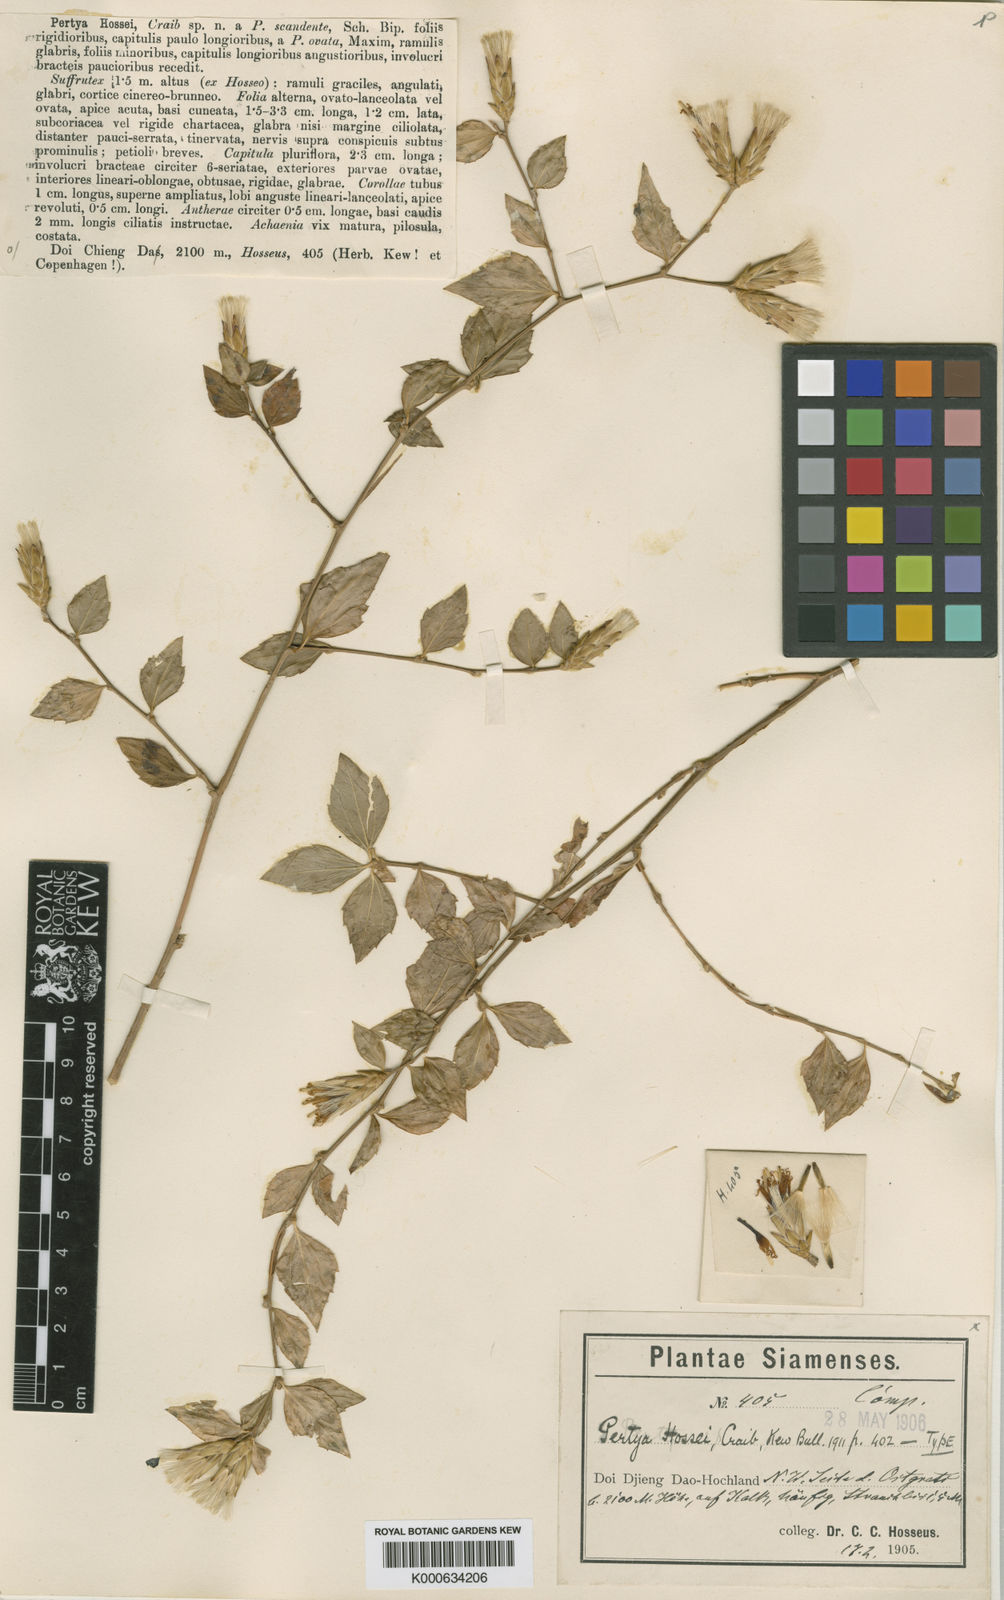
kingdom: Plantae
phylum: Tracheophyta
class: Magnoliopsida
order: Asterales
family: Asteraceae
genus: Pertya
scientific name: Pertya hossei
